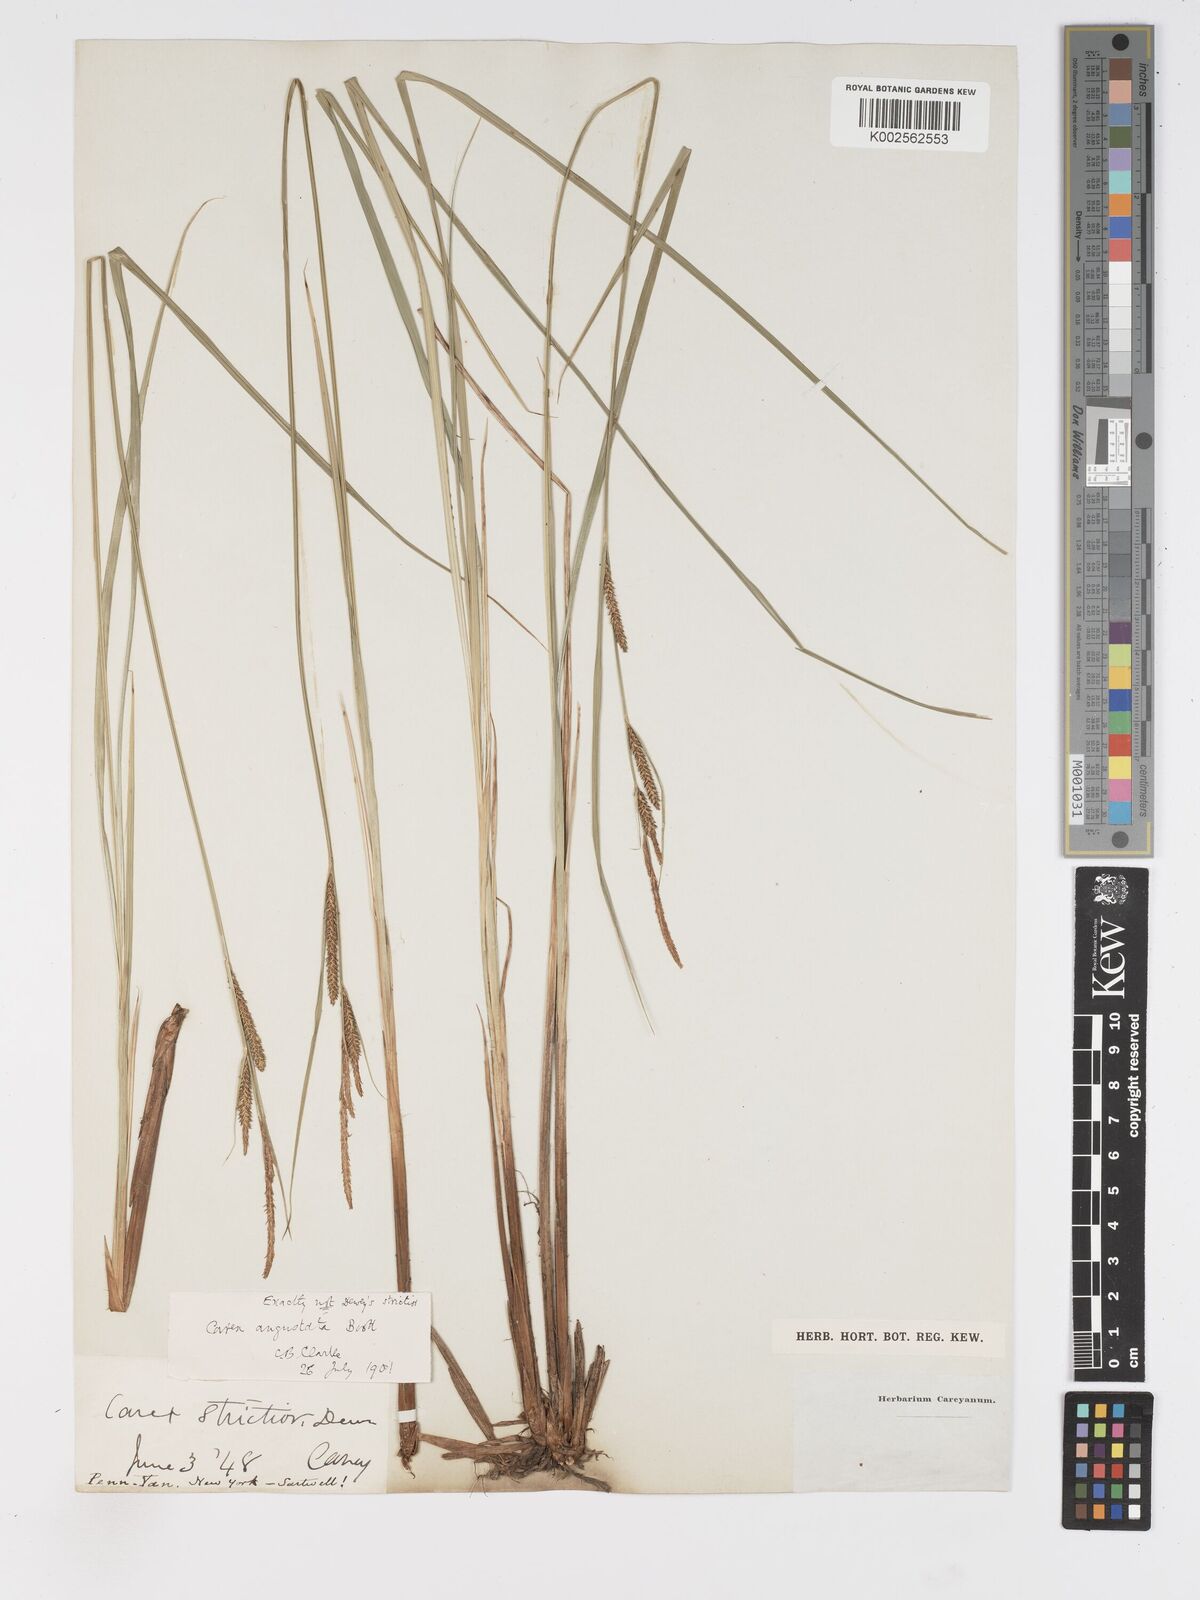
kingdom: Plantae
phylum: Tracheophyta
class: Liliopsida
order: Poales
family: Cyperaceae
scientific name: Cyperaceae
